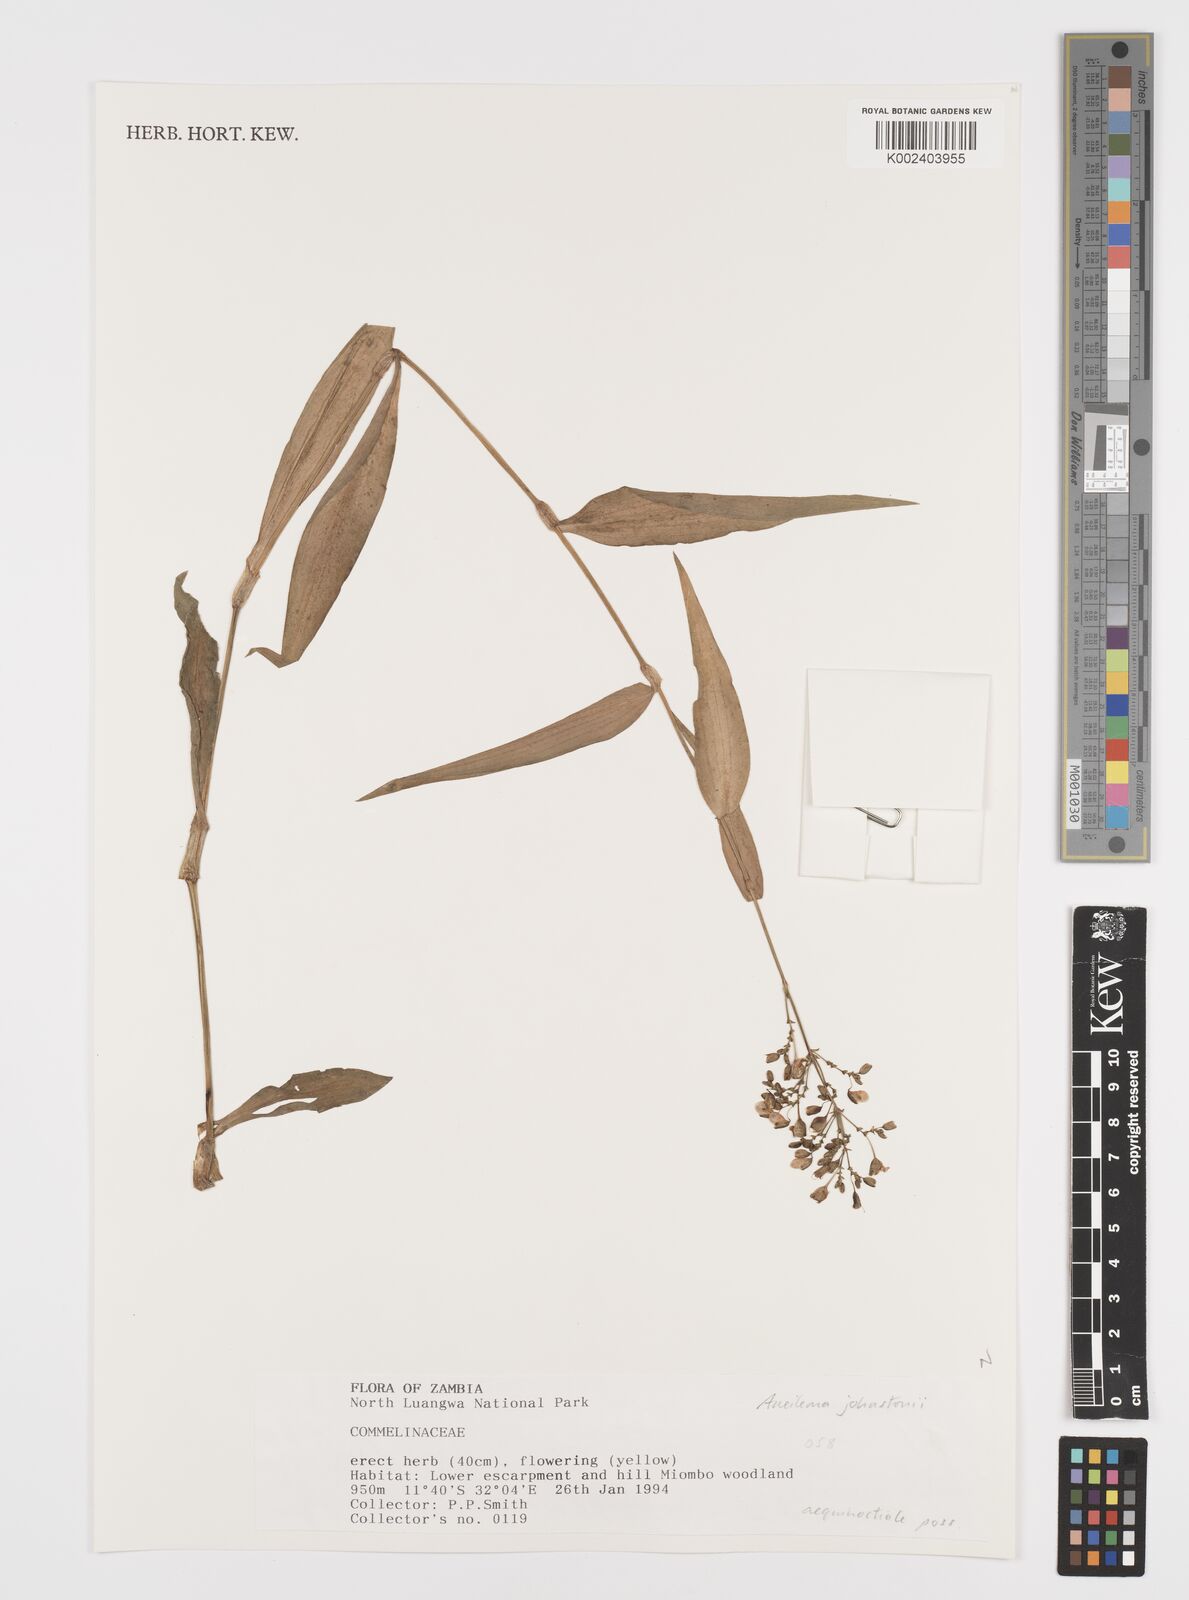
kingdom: Plantae
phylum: Tracheophyta
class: Liliopsida
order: Commelinales
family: Commelinaceae
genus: Aneilema
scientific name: Aneilema johnstonii
